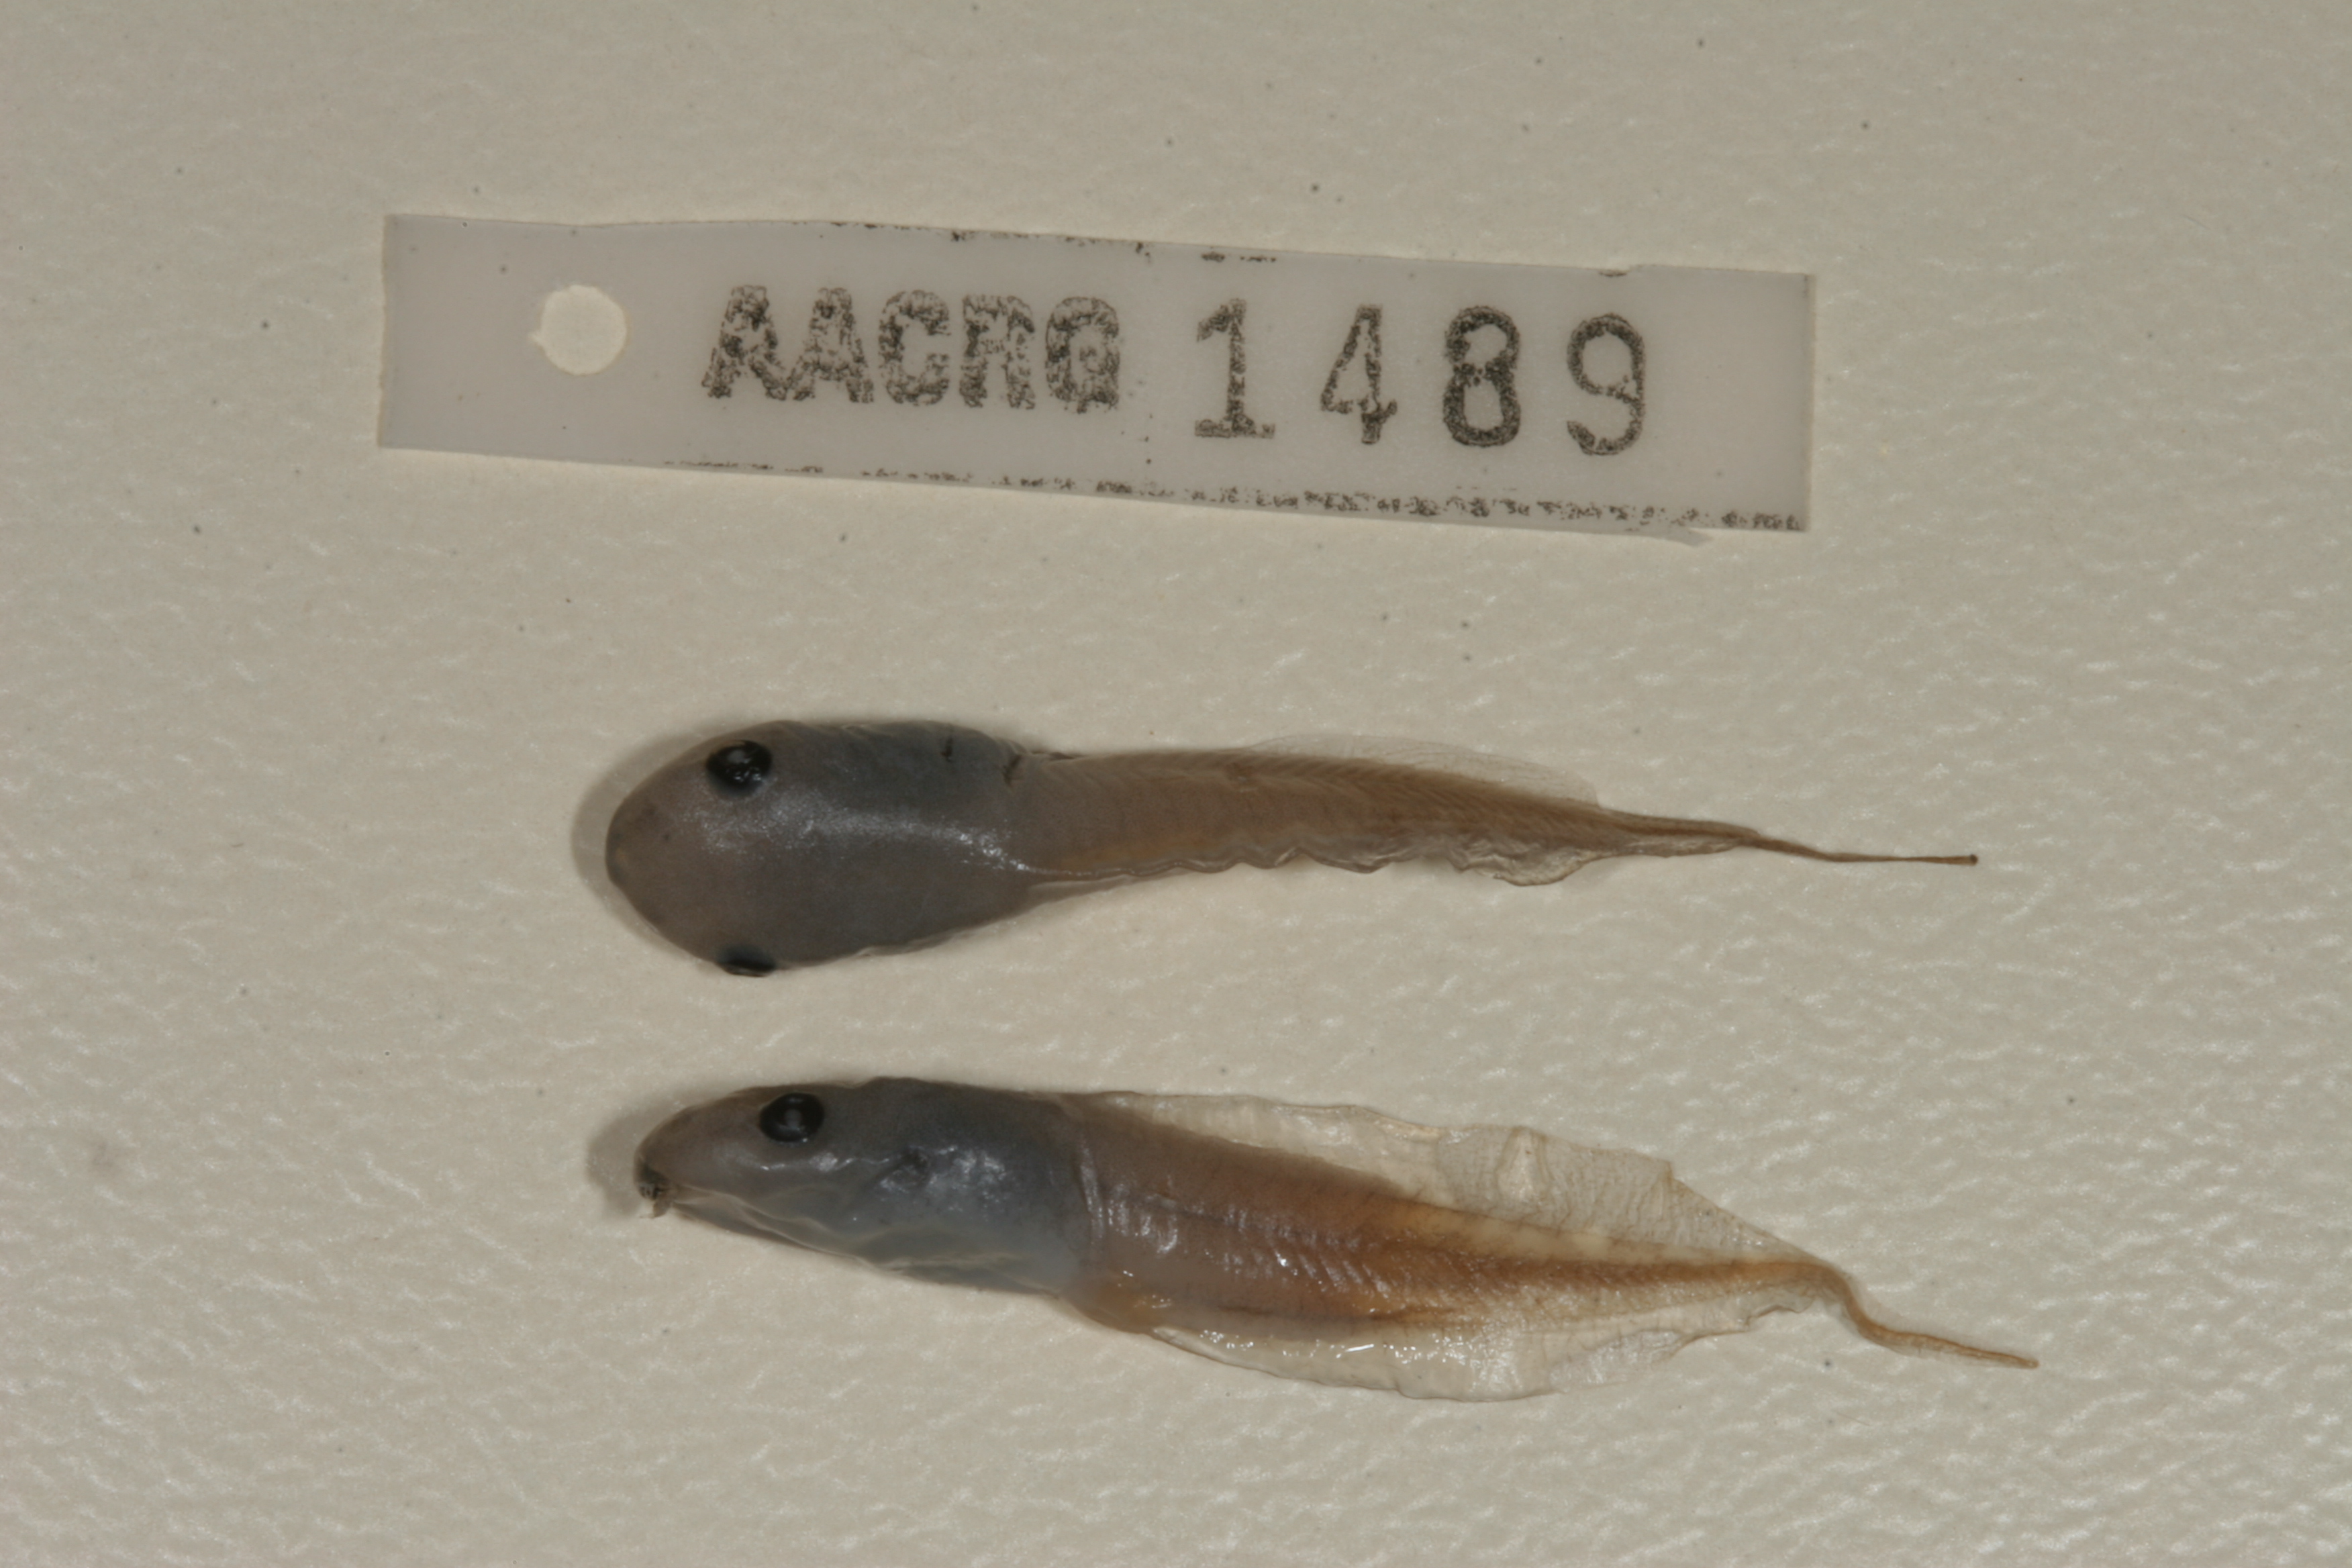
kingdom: Animalia
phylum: Chordata
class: Amphibia
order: Anura
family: Hemisotidae
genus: Hemisus
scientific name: Hemisus marmoratus
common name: Mottled shovel-nosed frog
